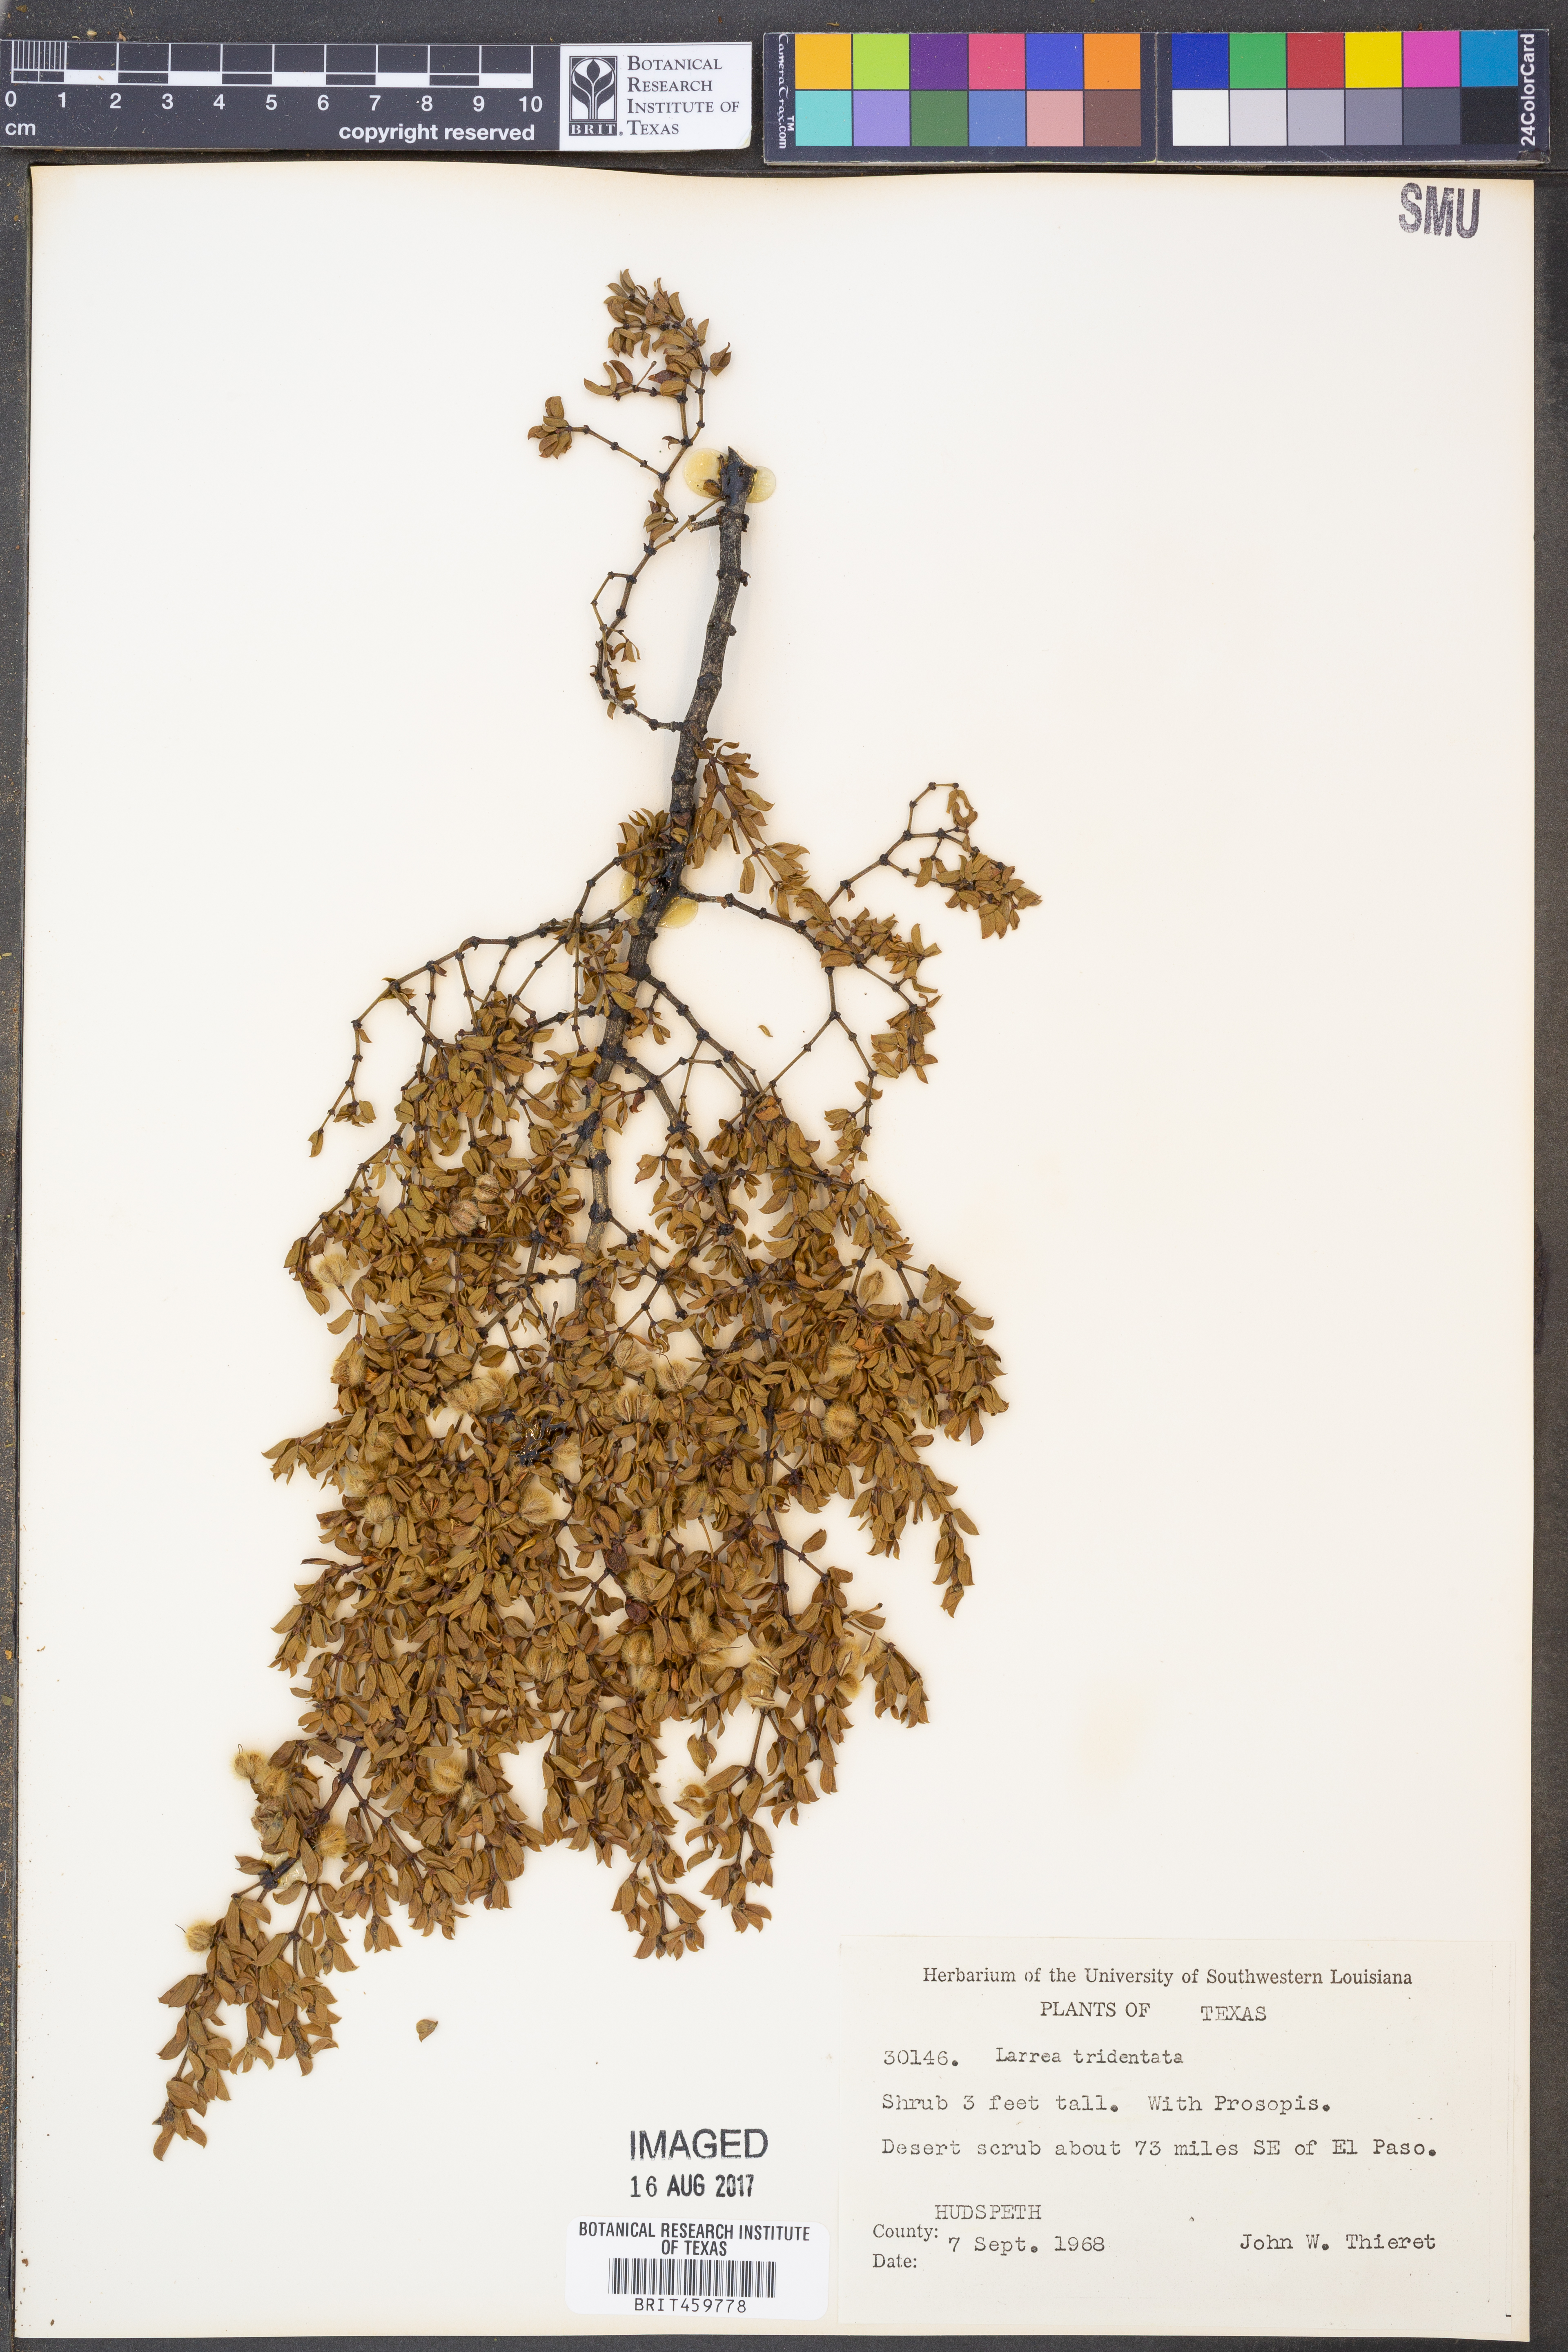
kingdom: Plantae
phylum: Tracheophyta
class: Magnoliopsida
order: Zygophyllales
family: Zygophyllaceae
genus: Larrea
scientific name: Larrea tridentata
